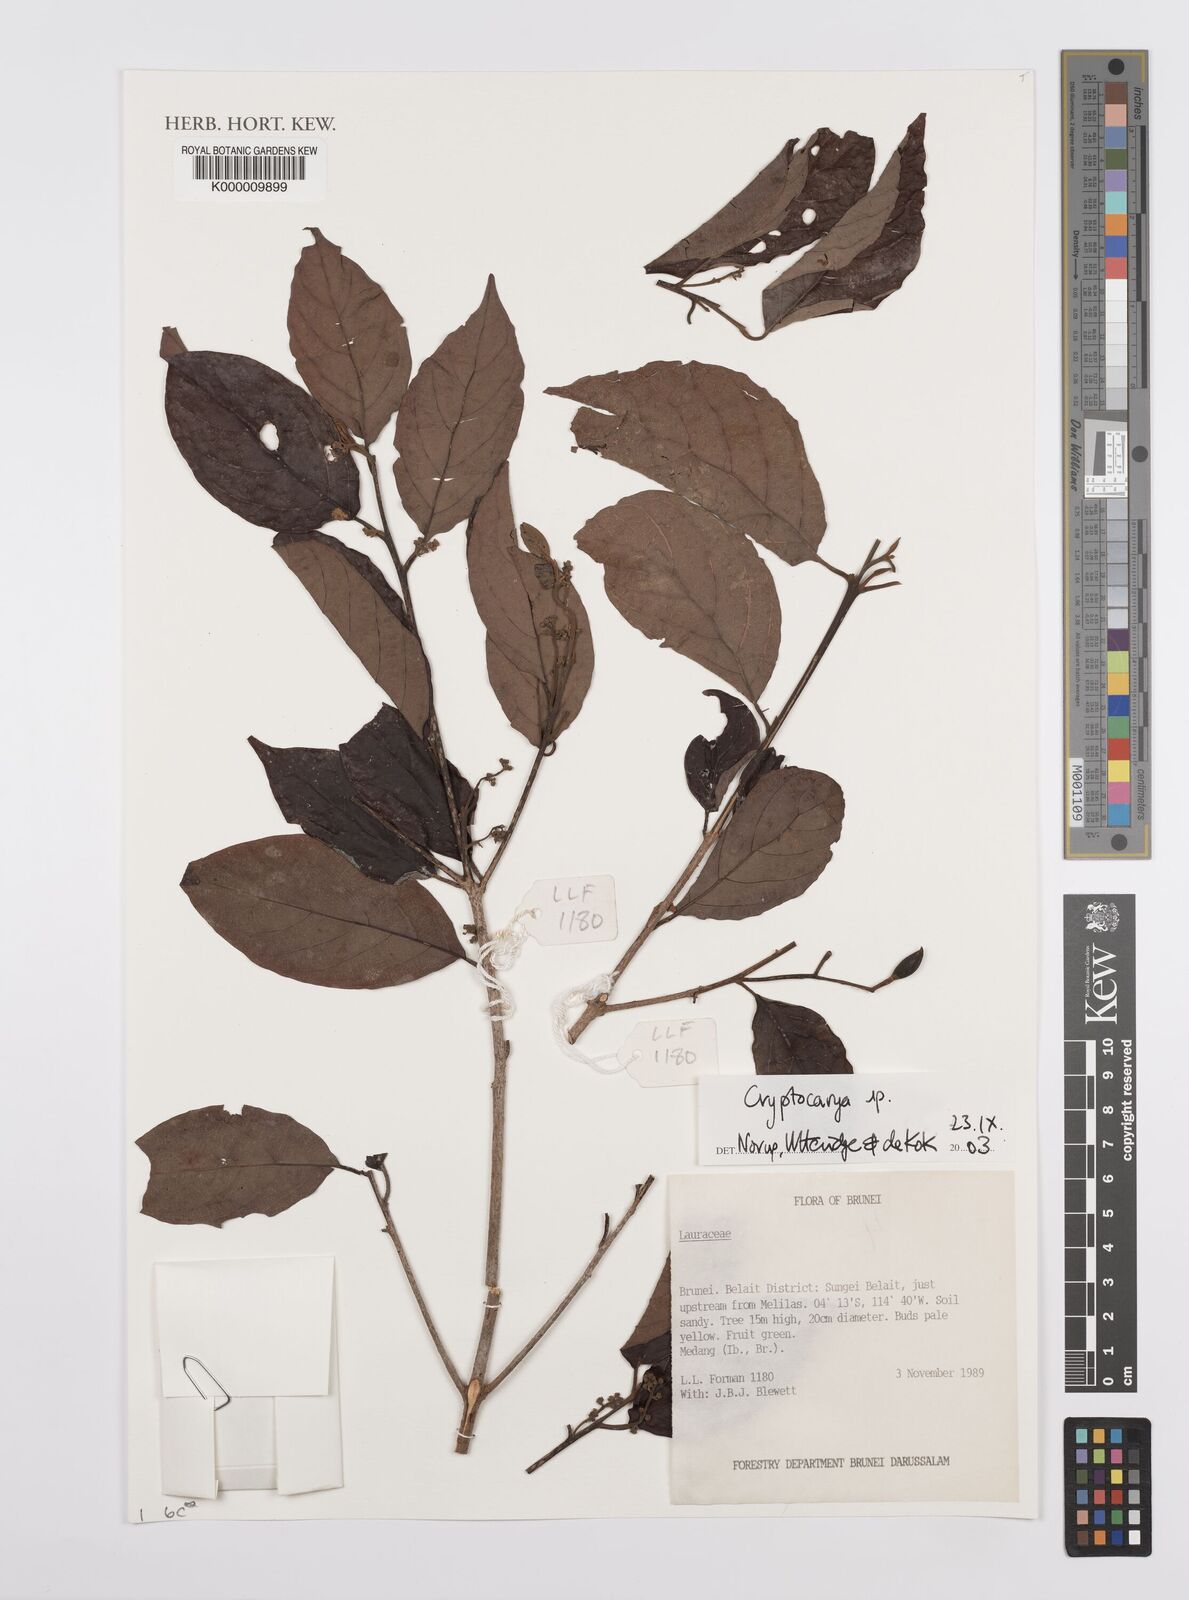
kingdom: Plantae
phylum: Tracheophyta
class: Magnoliopsida
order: Laurales
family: Lauraceae
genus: Cryptocarya
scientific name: Cryptocarya
